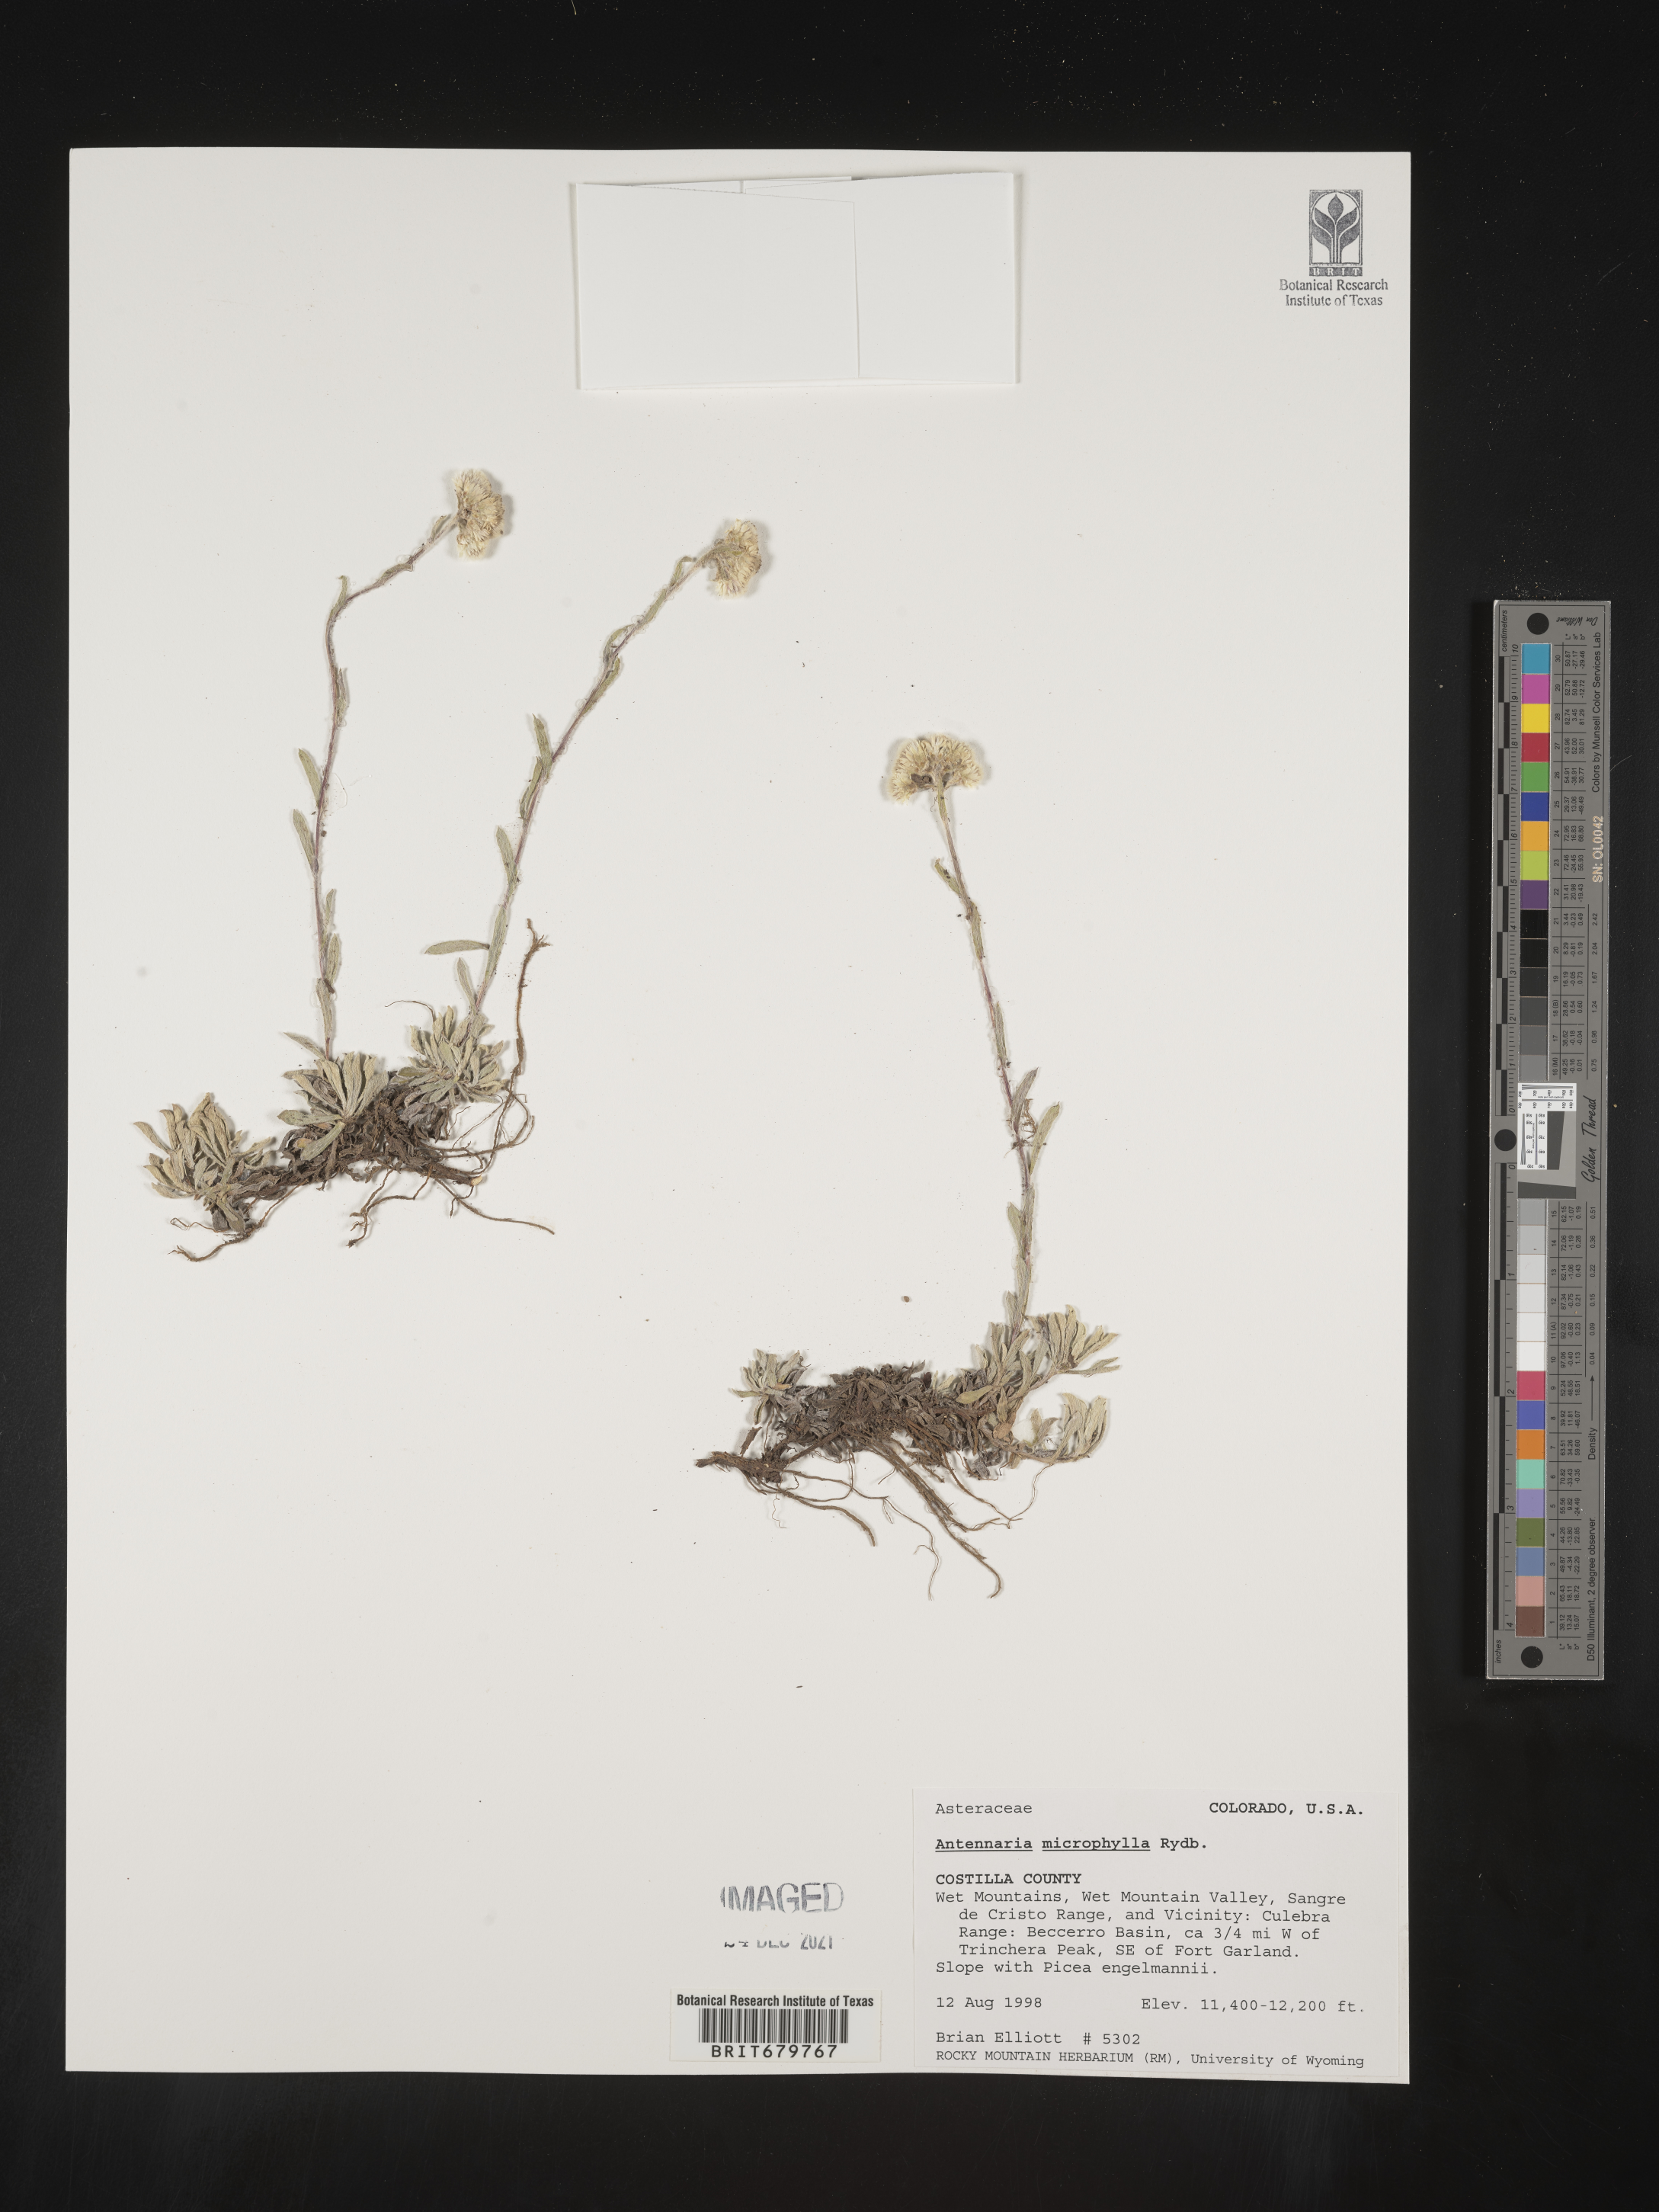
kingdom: Plantae
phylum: Tracheophyta
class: Magnoliopsida
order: Asterales
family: Asteraceae
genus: Antennaria
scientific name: Antennaria microphylla
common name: Littleleaf pussytoes
